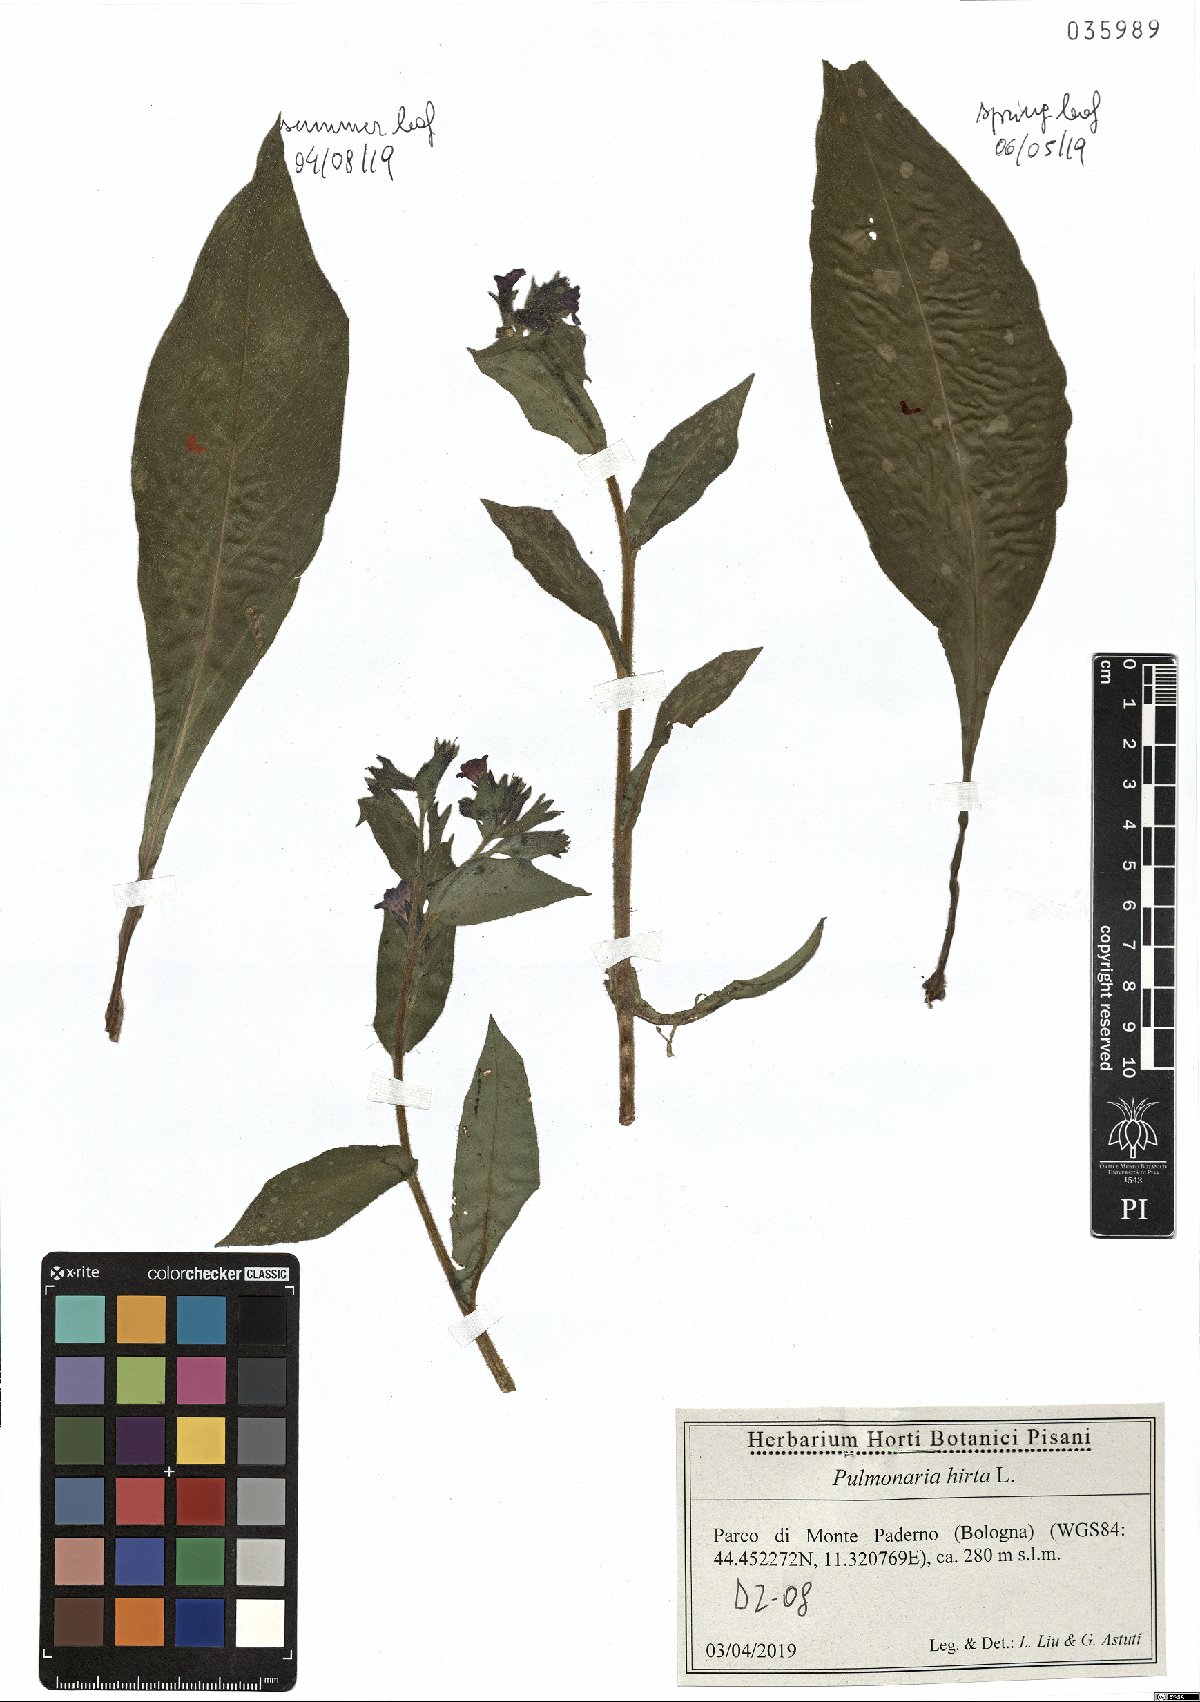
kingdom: Plantae
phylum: Tracheophyta
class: Magnoliopsida
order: Boraginales
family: Boraginaceae
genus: Pulmonaria
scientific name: Pulmonaria hirta
